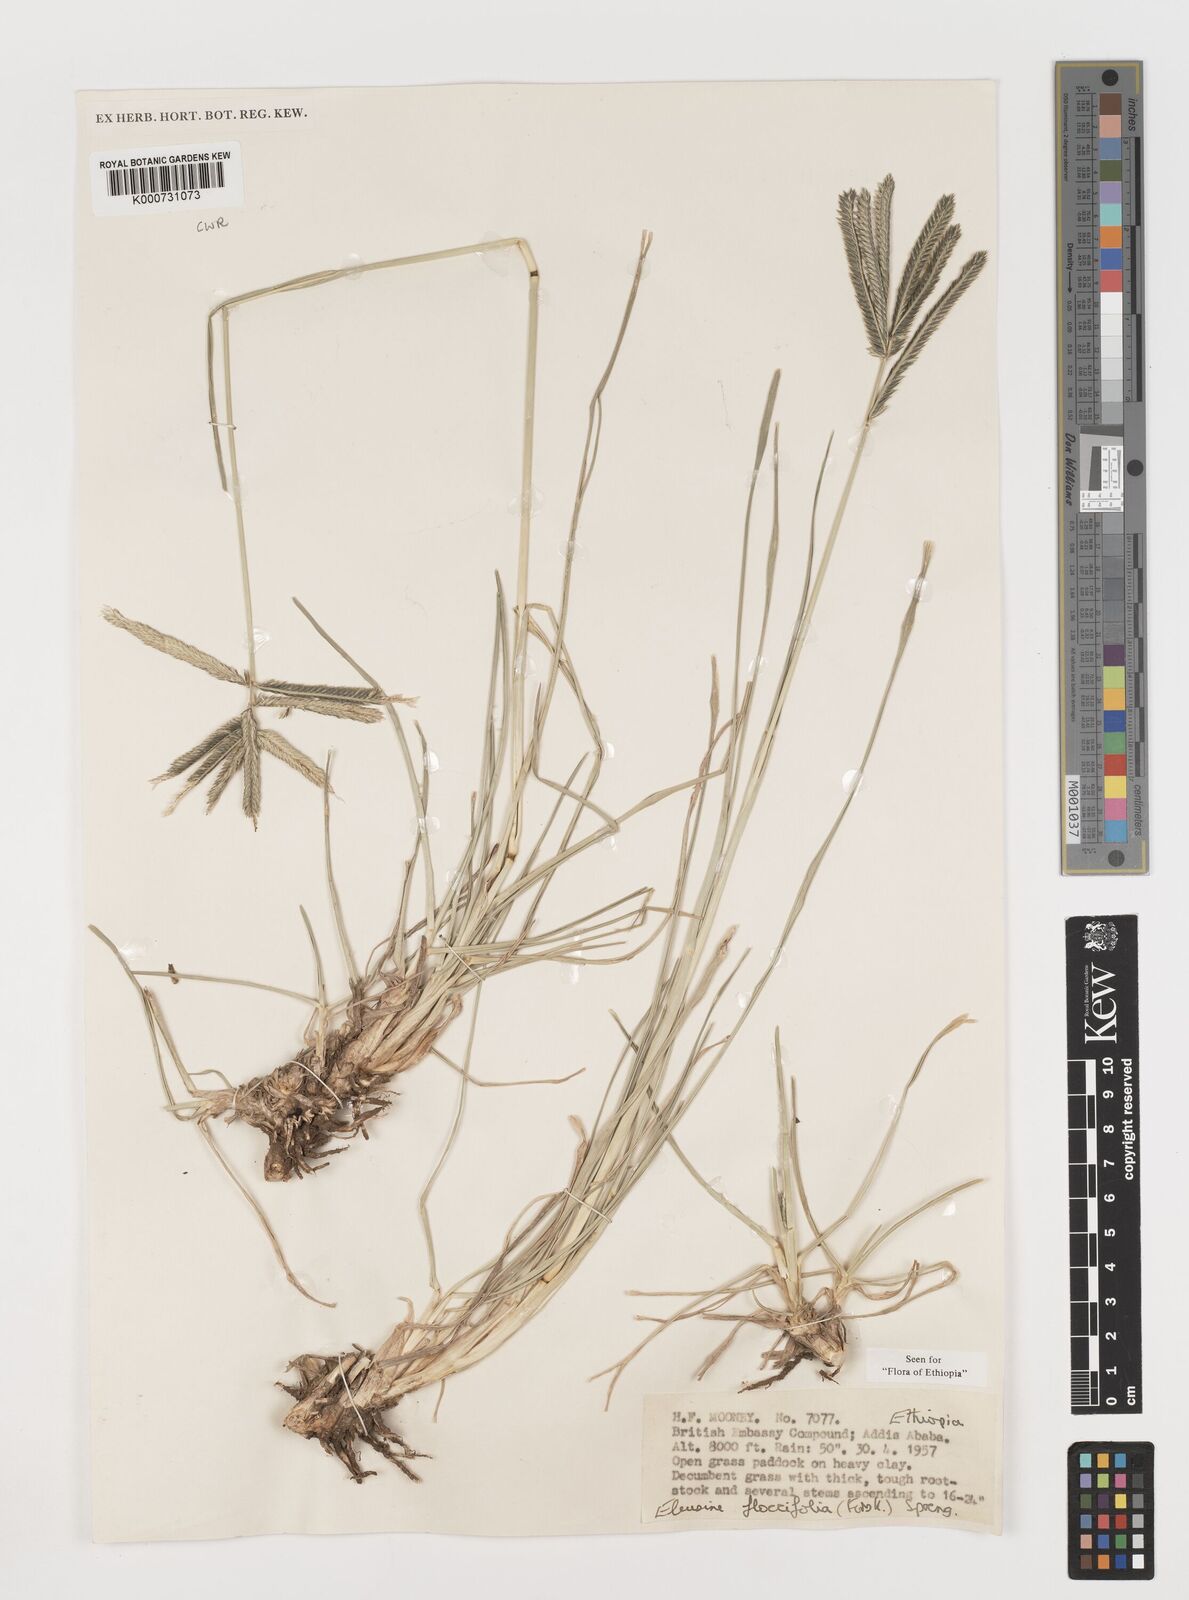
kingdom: Plantae
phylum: Tracheophyta
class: Liliopsida
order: Poales
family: Poaceae
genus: Eleusine
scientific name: Eleusine floccifolia
